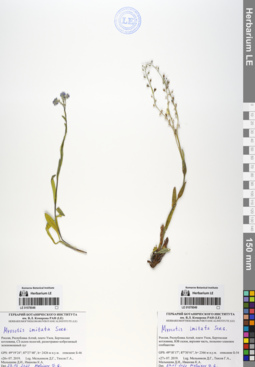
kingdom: Plantae
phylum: Tracheophyta
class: Magnoliopsida
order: Boraginales
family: Boraginaceae
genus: Myosotis
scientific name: Myosotis imitata
